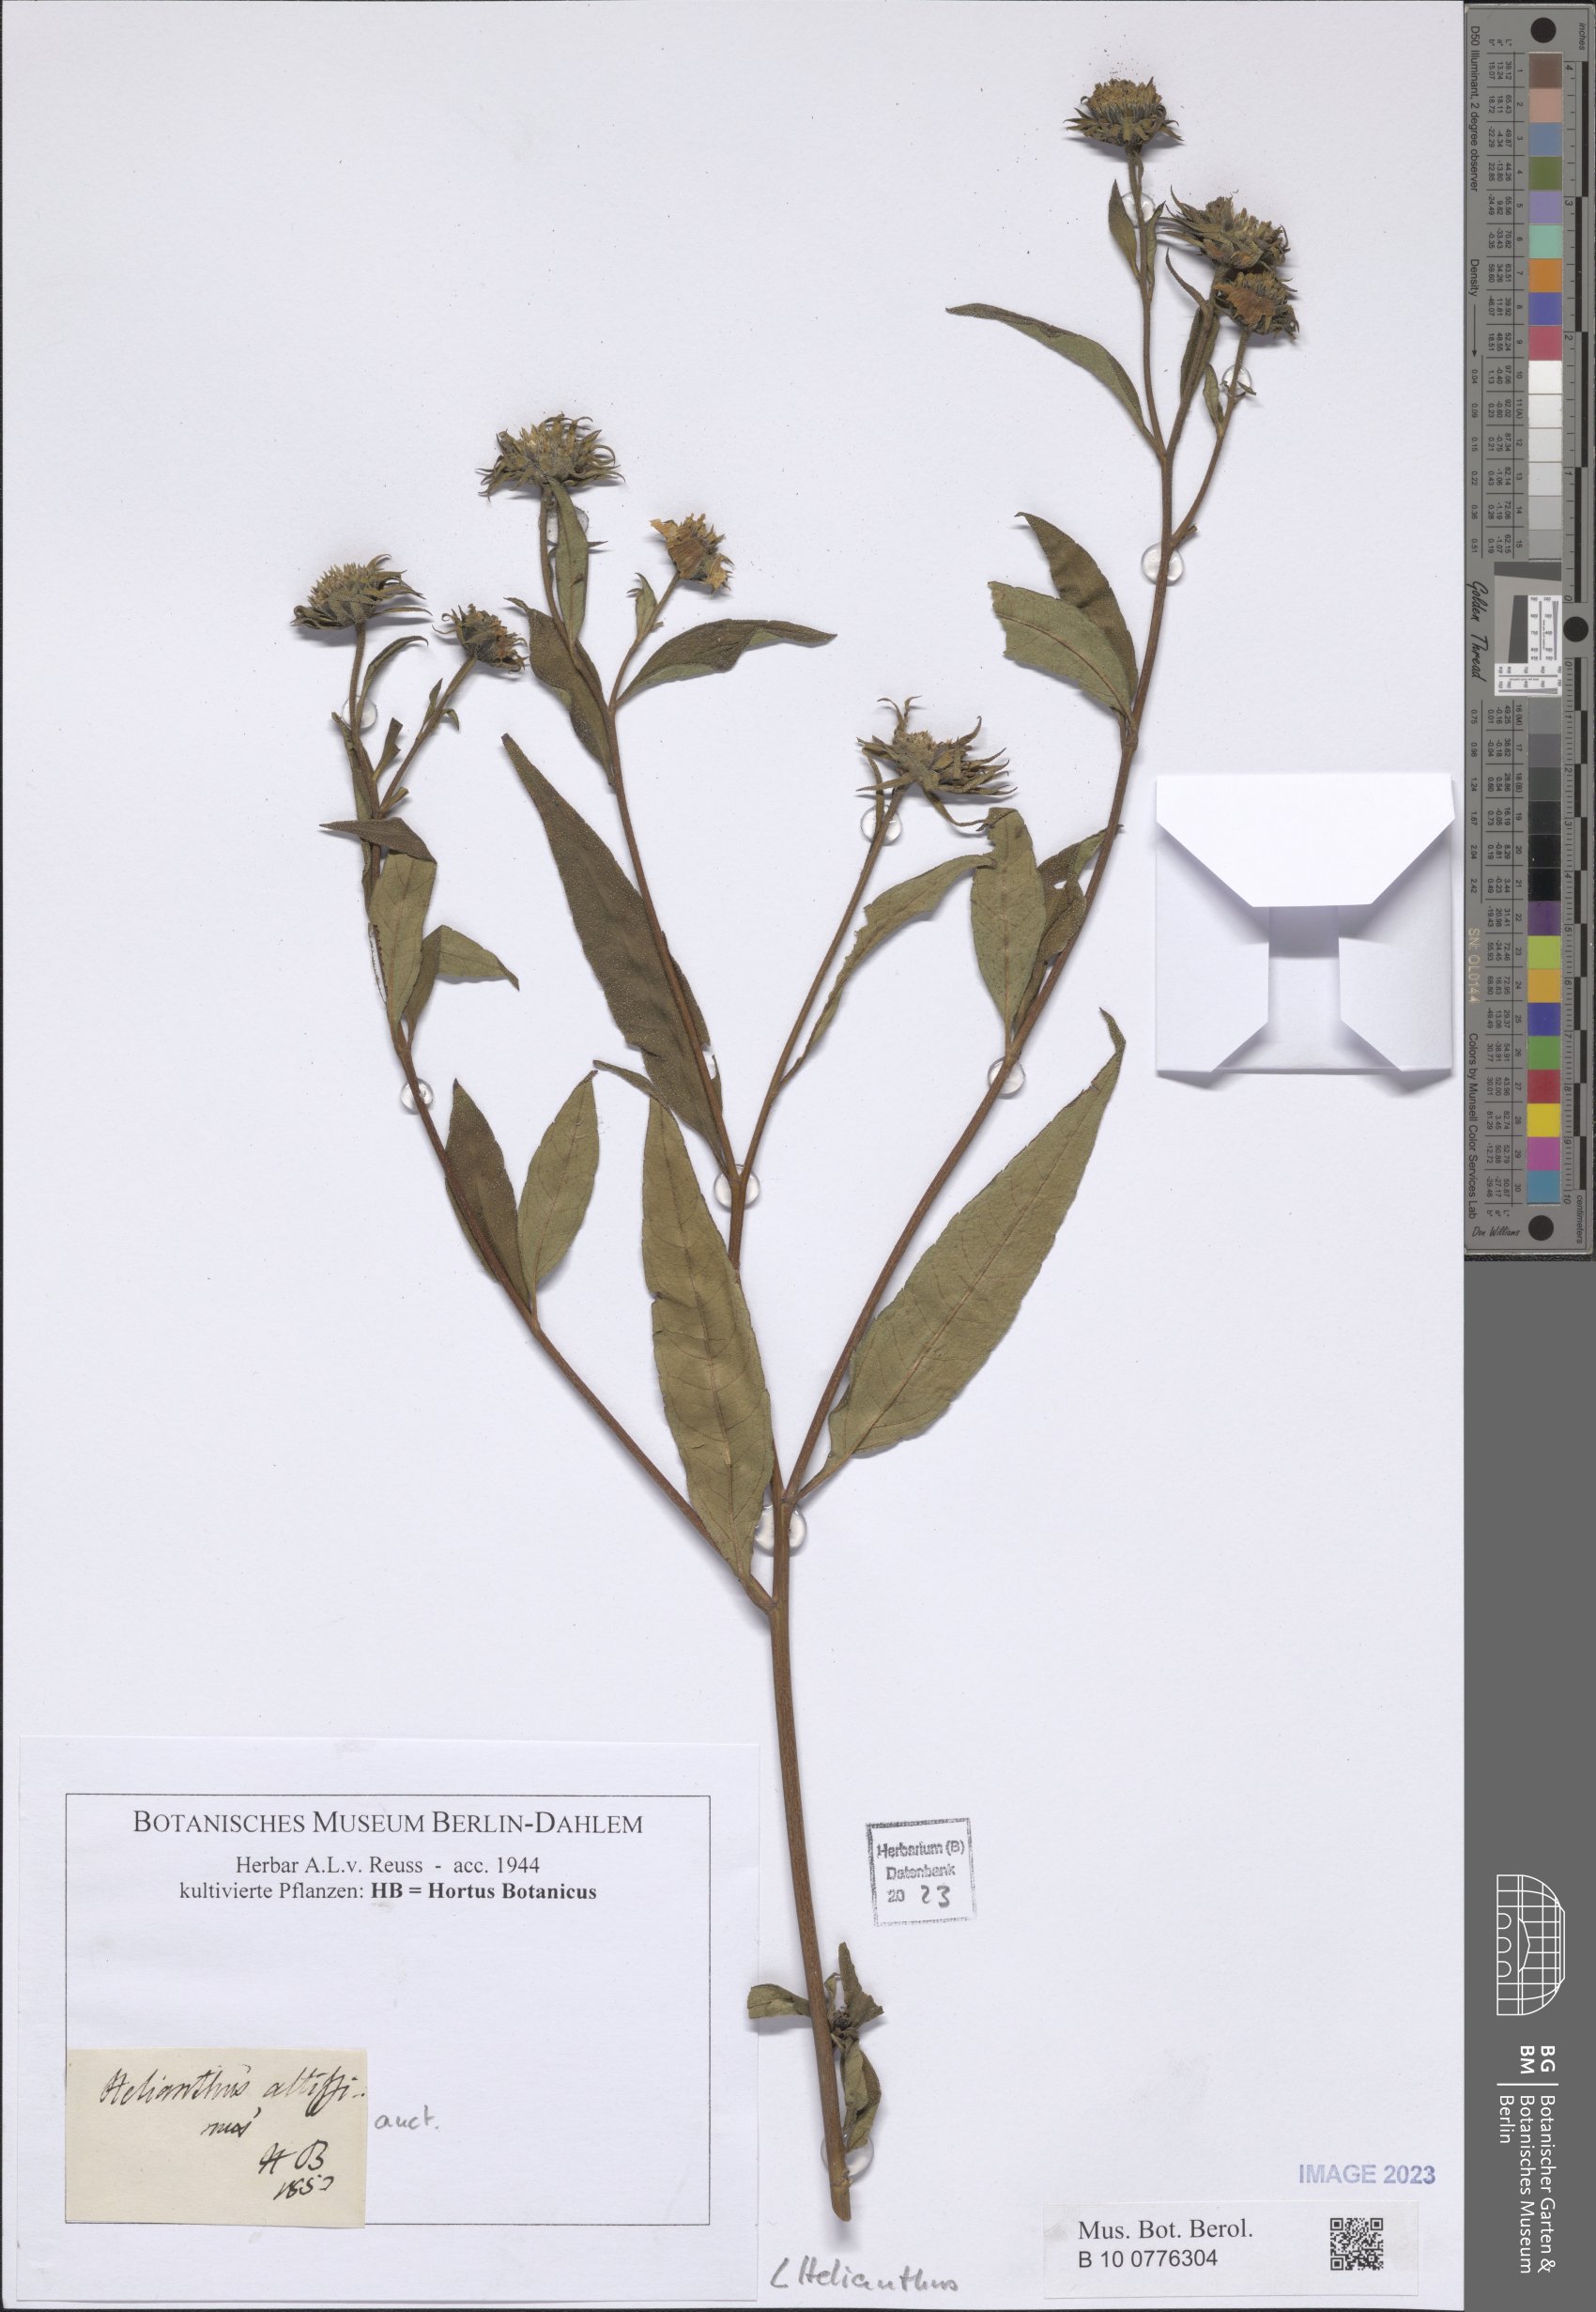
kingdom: Plantae
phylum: Tracheophyta
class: Magnoliopsida
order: Asterales
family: Asteraceae
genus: Helianthus
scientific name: Helianthus
